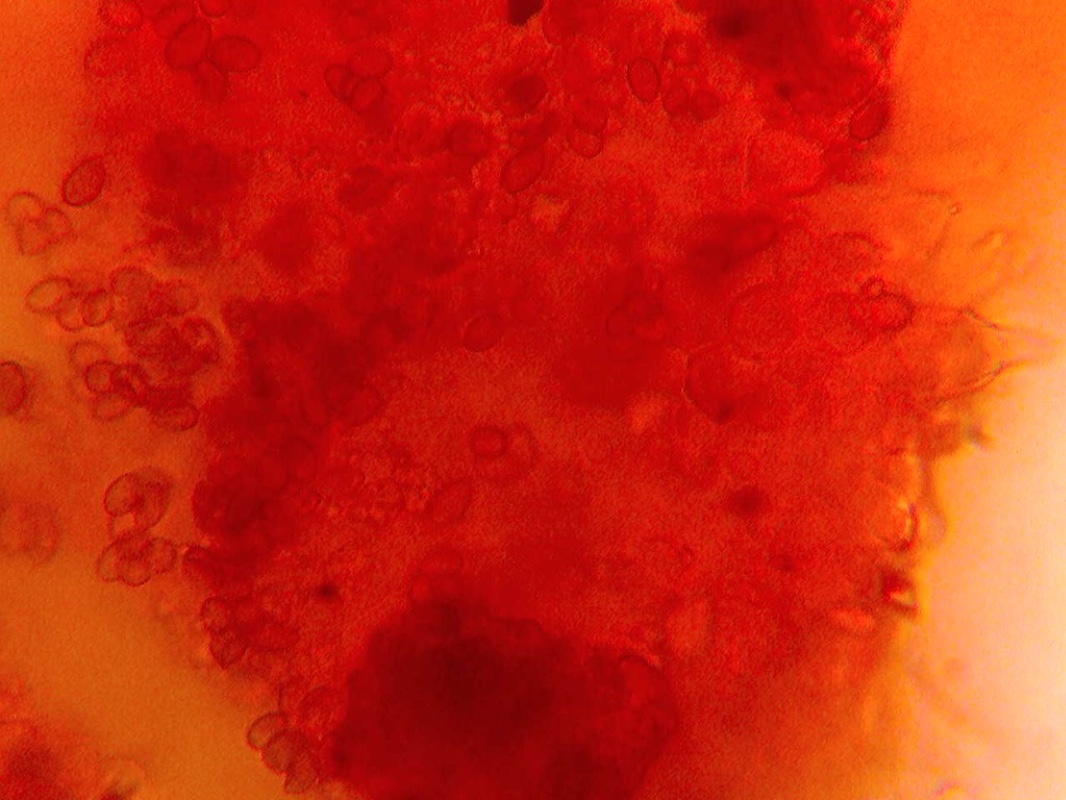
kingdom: Fungi
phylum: Basidiomycota
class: Agaricomycetes
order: Agaricales
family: Strophariaceae
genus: Deconica
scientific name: Deconica crobula
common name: træflis-stråhat
